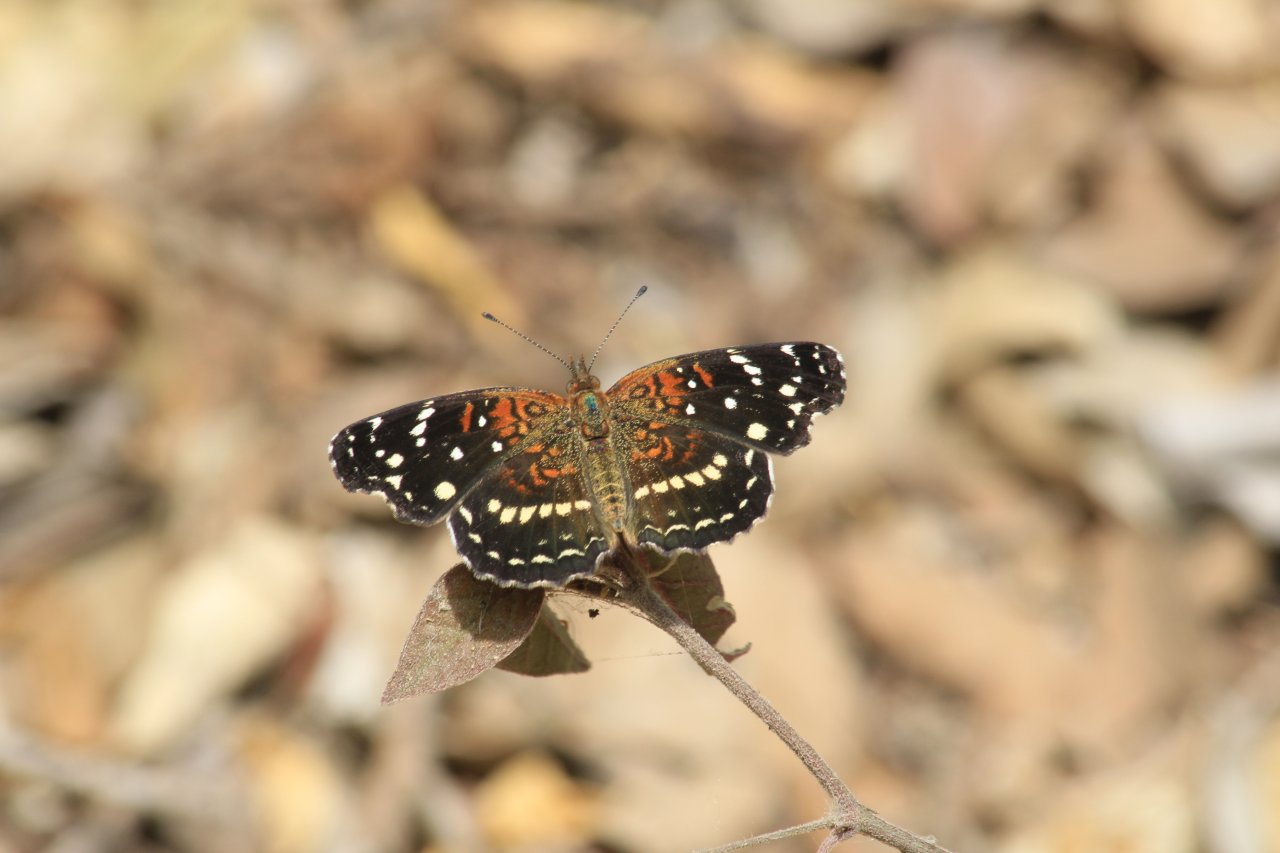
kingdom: Animalia
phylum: Arthropoda
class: Insecta
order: Lepidoptera
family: Nymphalidae
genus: Anthanassa
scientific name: Anthanassa texana
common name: Texan Crescent
